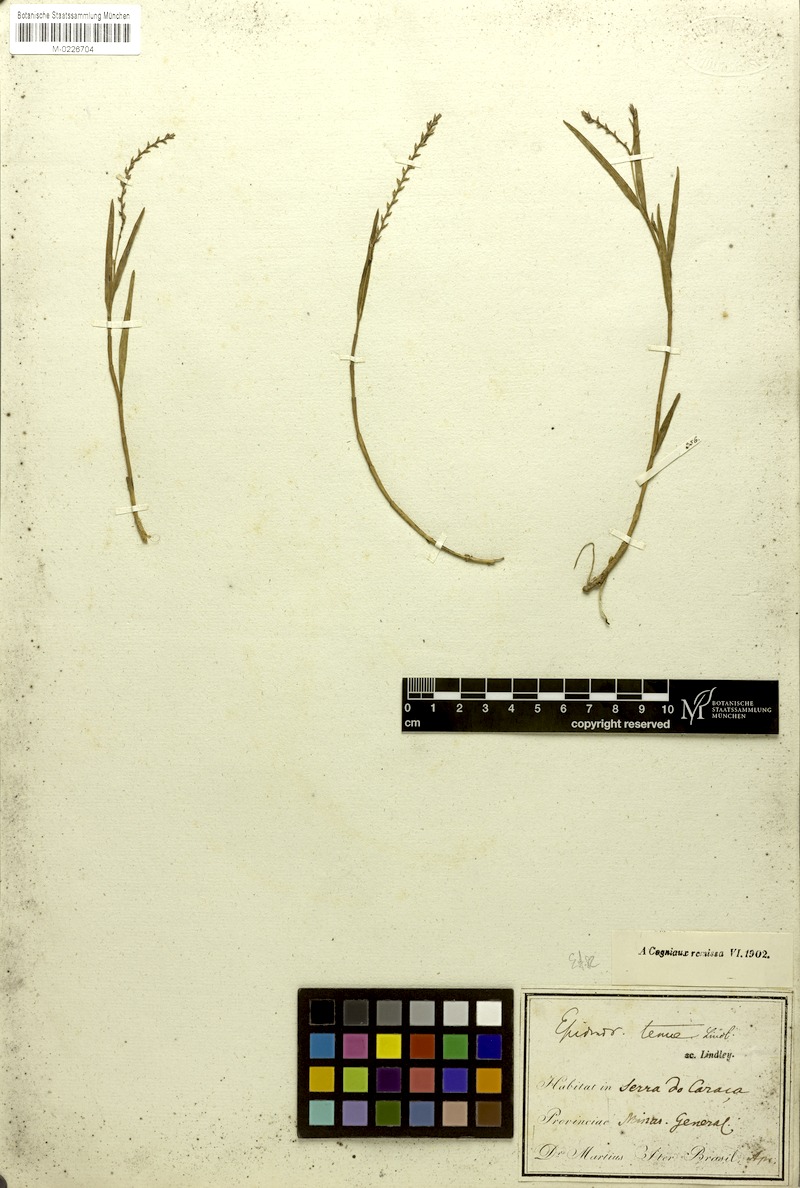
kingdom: Plantae
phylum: Tracheophyta
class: Liliopsida
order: Asparagales
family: Orchidaceae
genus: Epidendrum
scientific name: Epidendrum tenue
